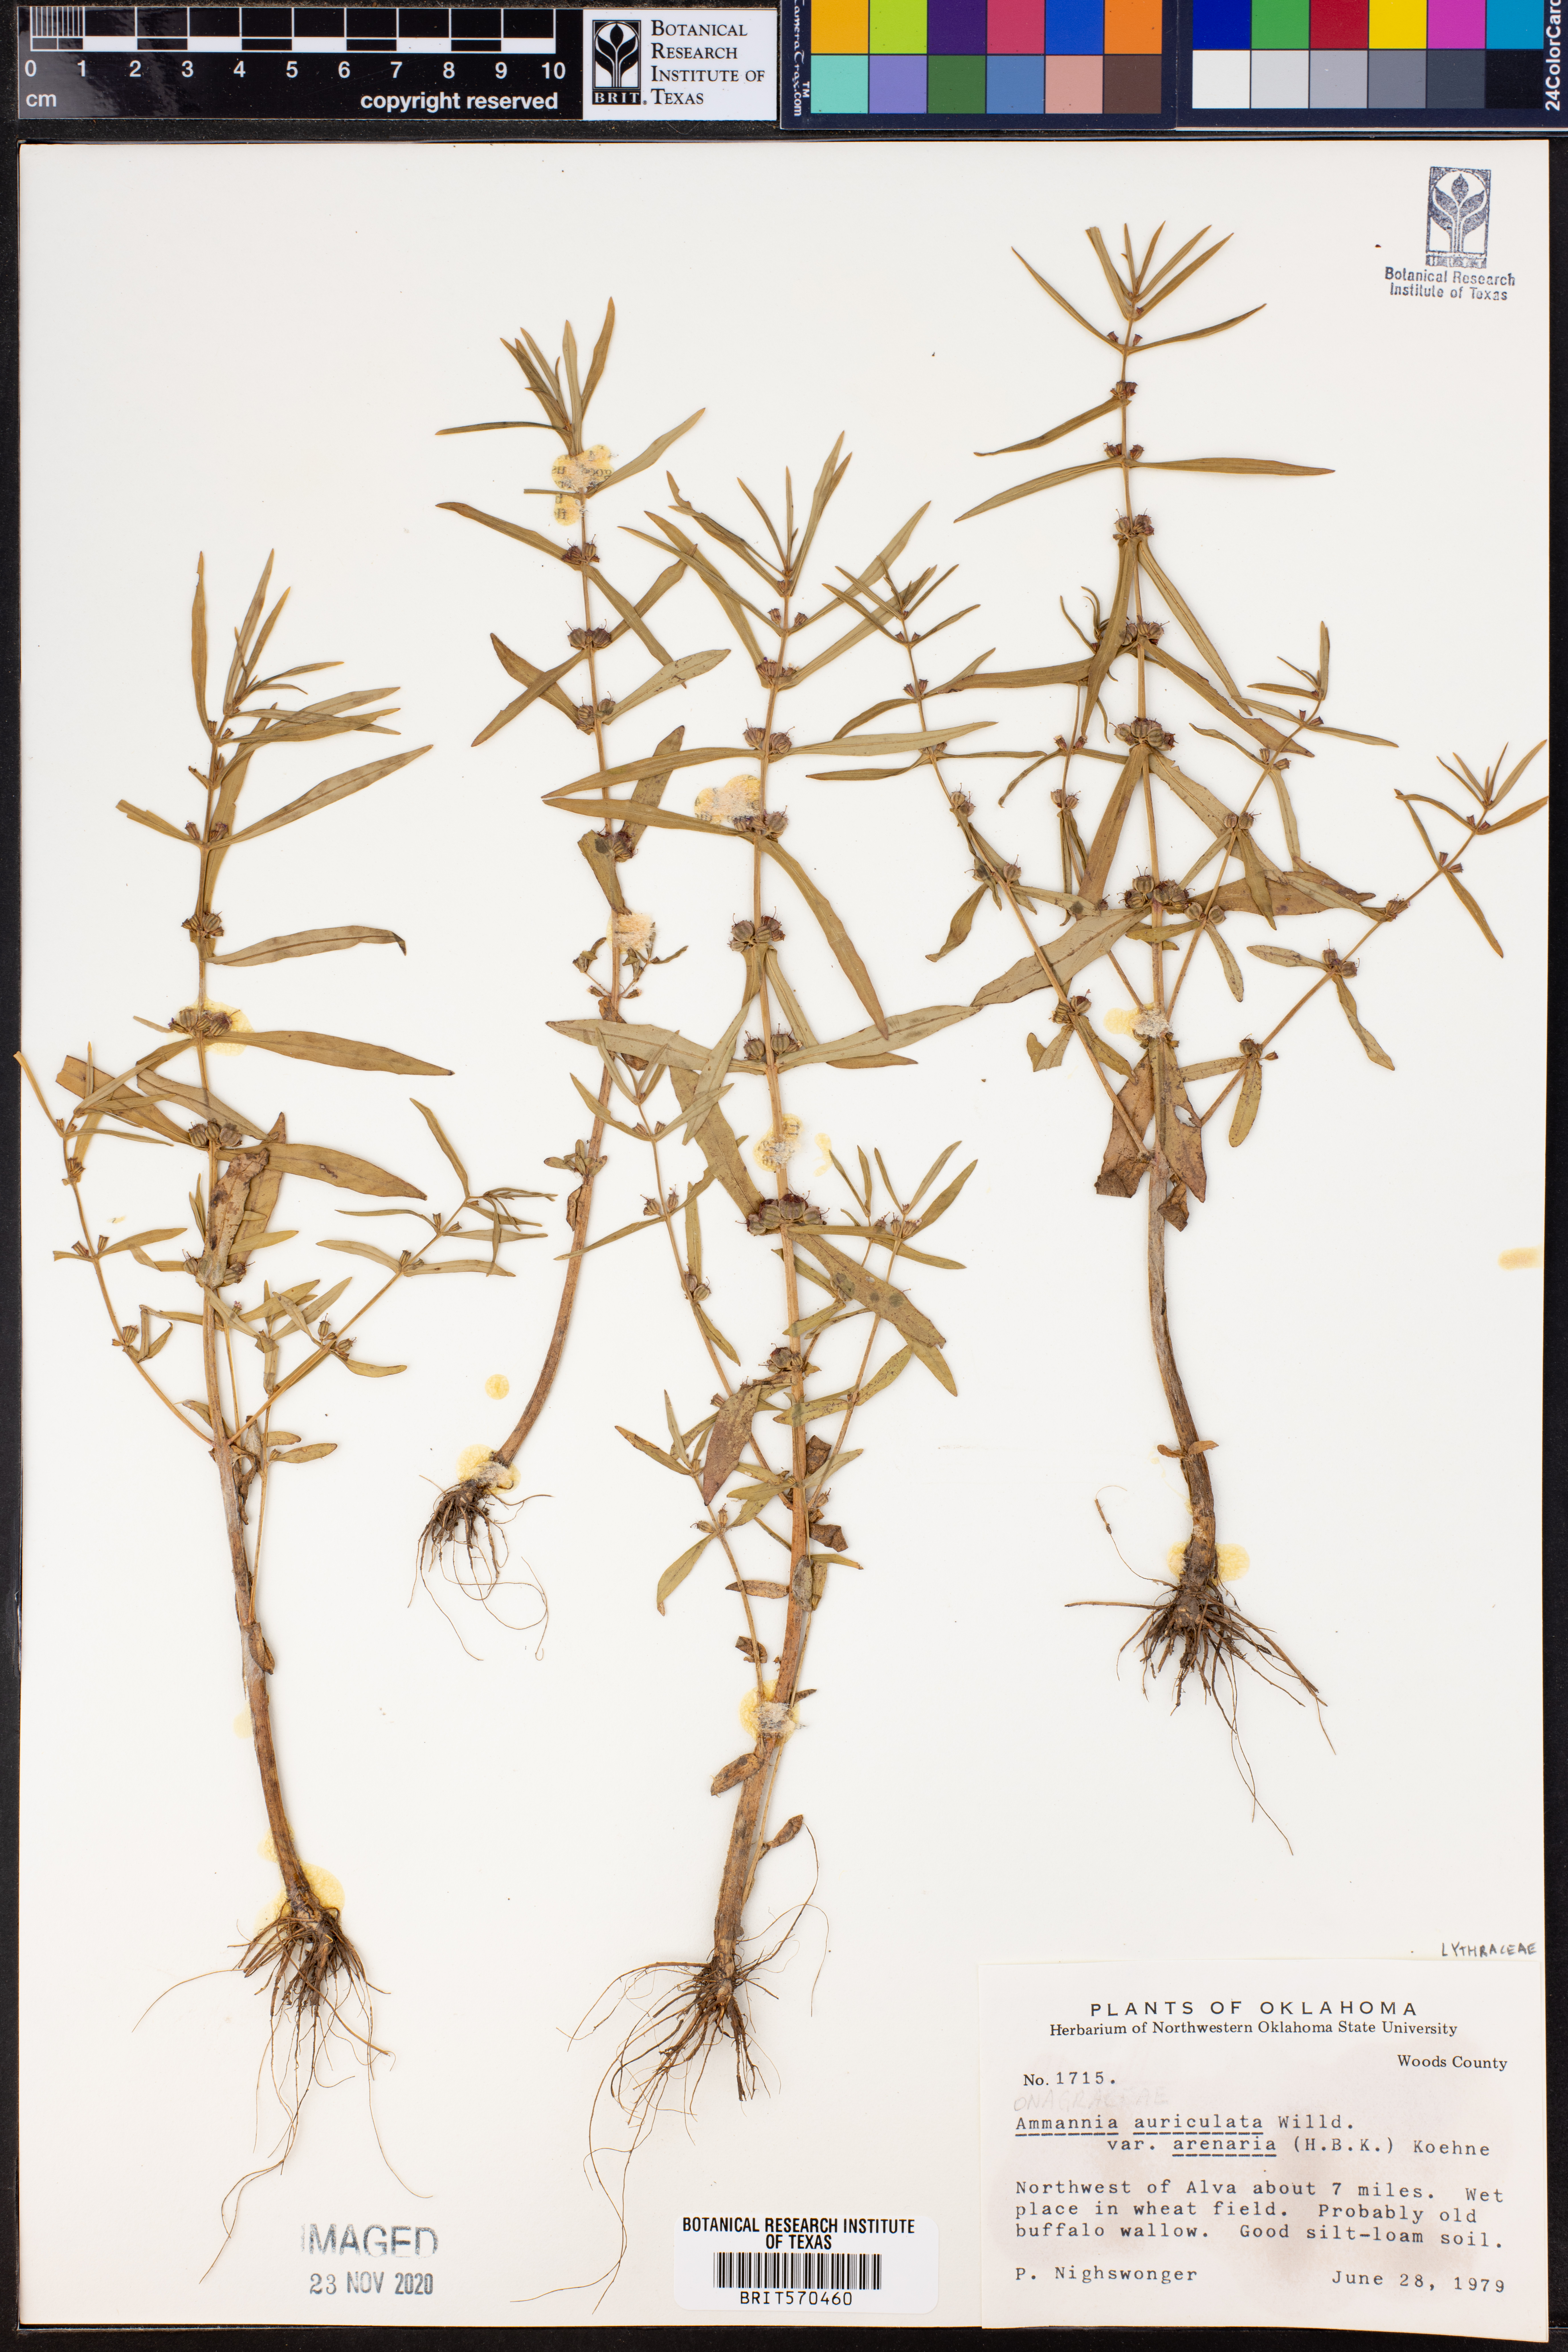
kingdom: Plantae
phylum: Tracheophyta
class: Magnoliopsida
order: Myrtales
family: Lythraceae
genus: Ammannia
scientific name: Ammannia auriculata
